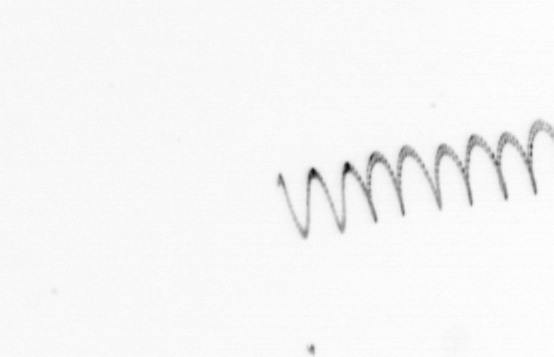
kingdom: Chromista
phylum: Ochrophyta
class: Bacillariophyceae
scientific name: Bacillariophyceae
